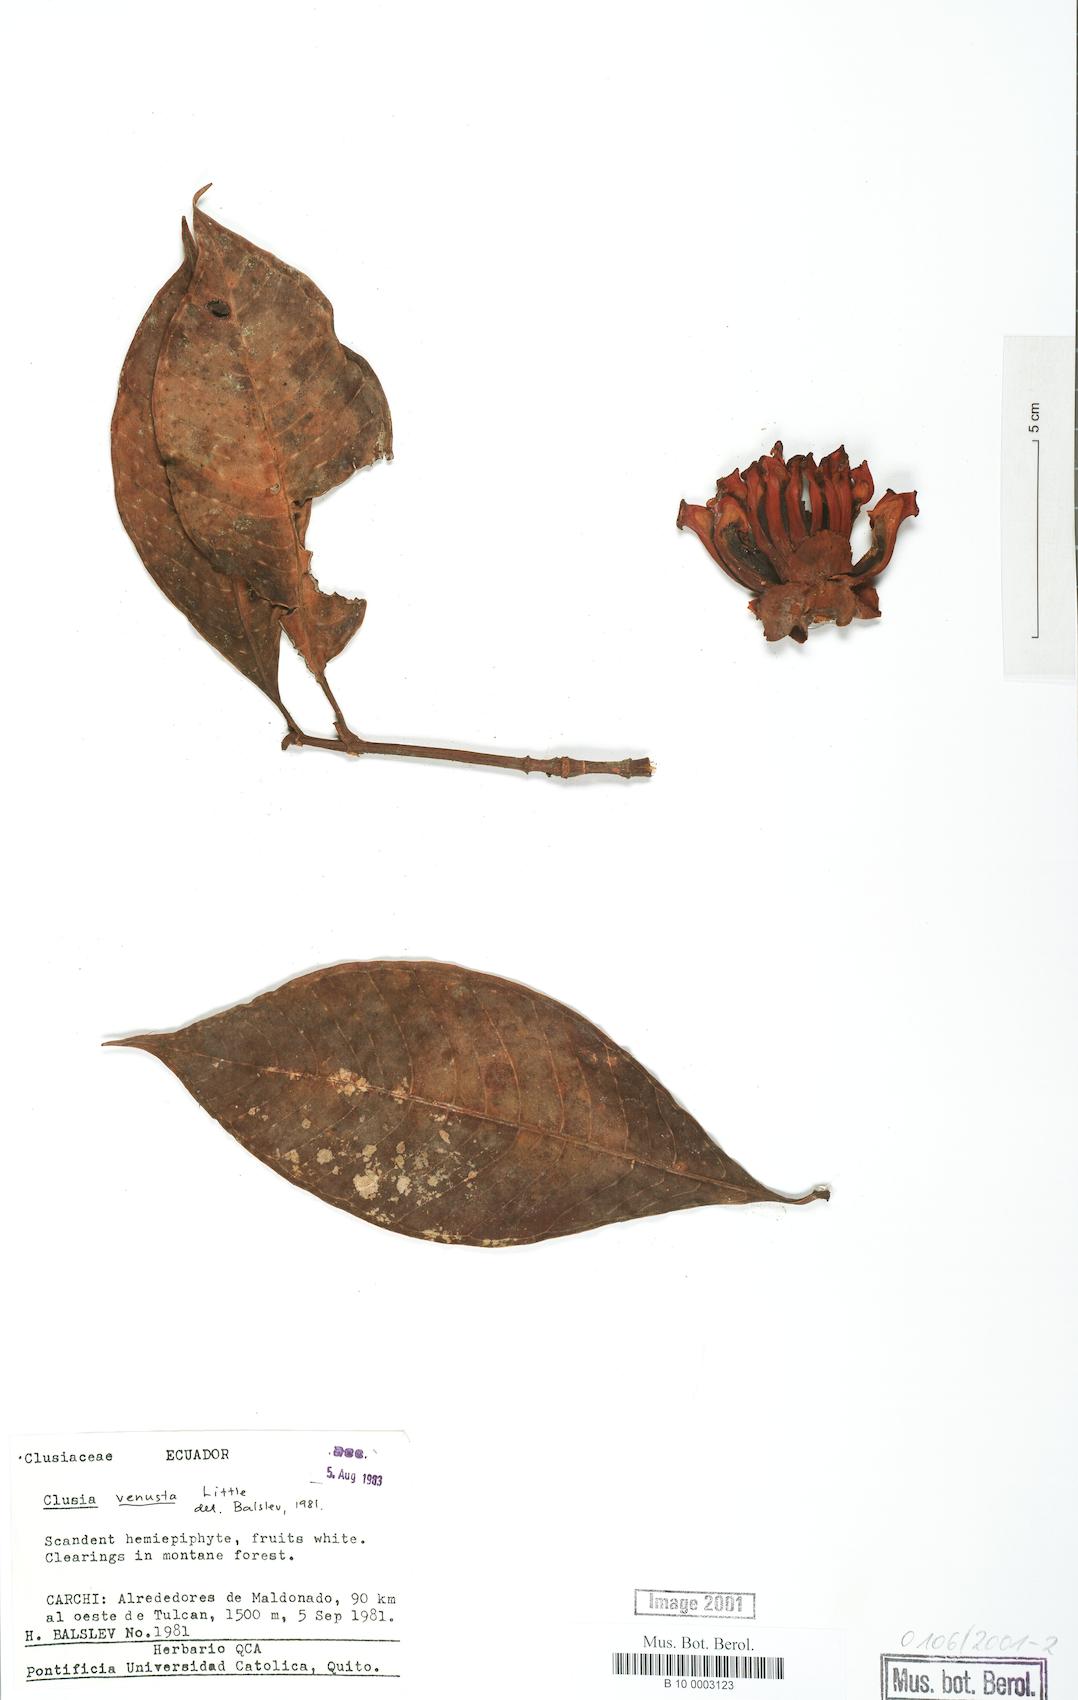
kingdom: Plantae
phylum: Tracheophyta
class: Magnoliopsida
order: Malpighiales
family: Clusiaceae
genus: Clusia
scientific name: Clusia venusta
